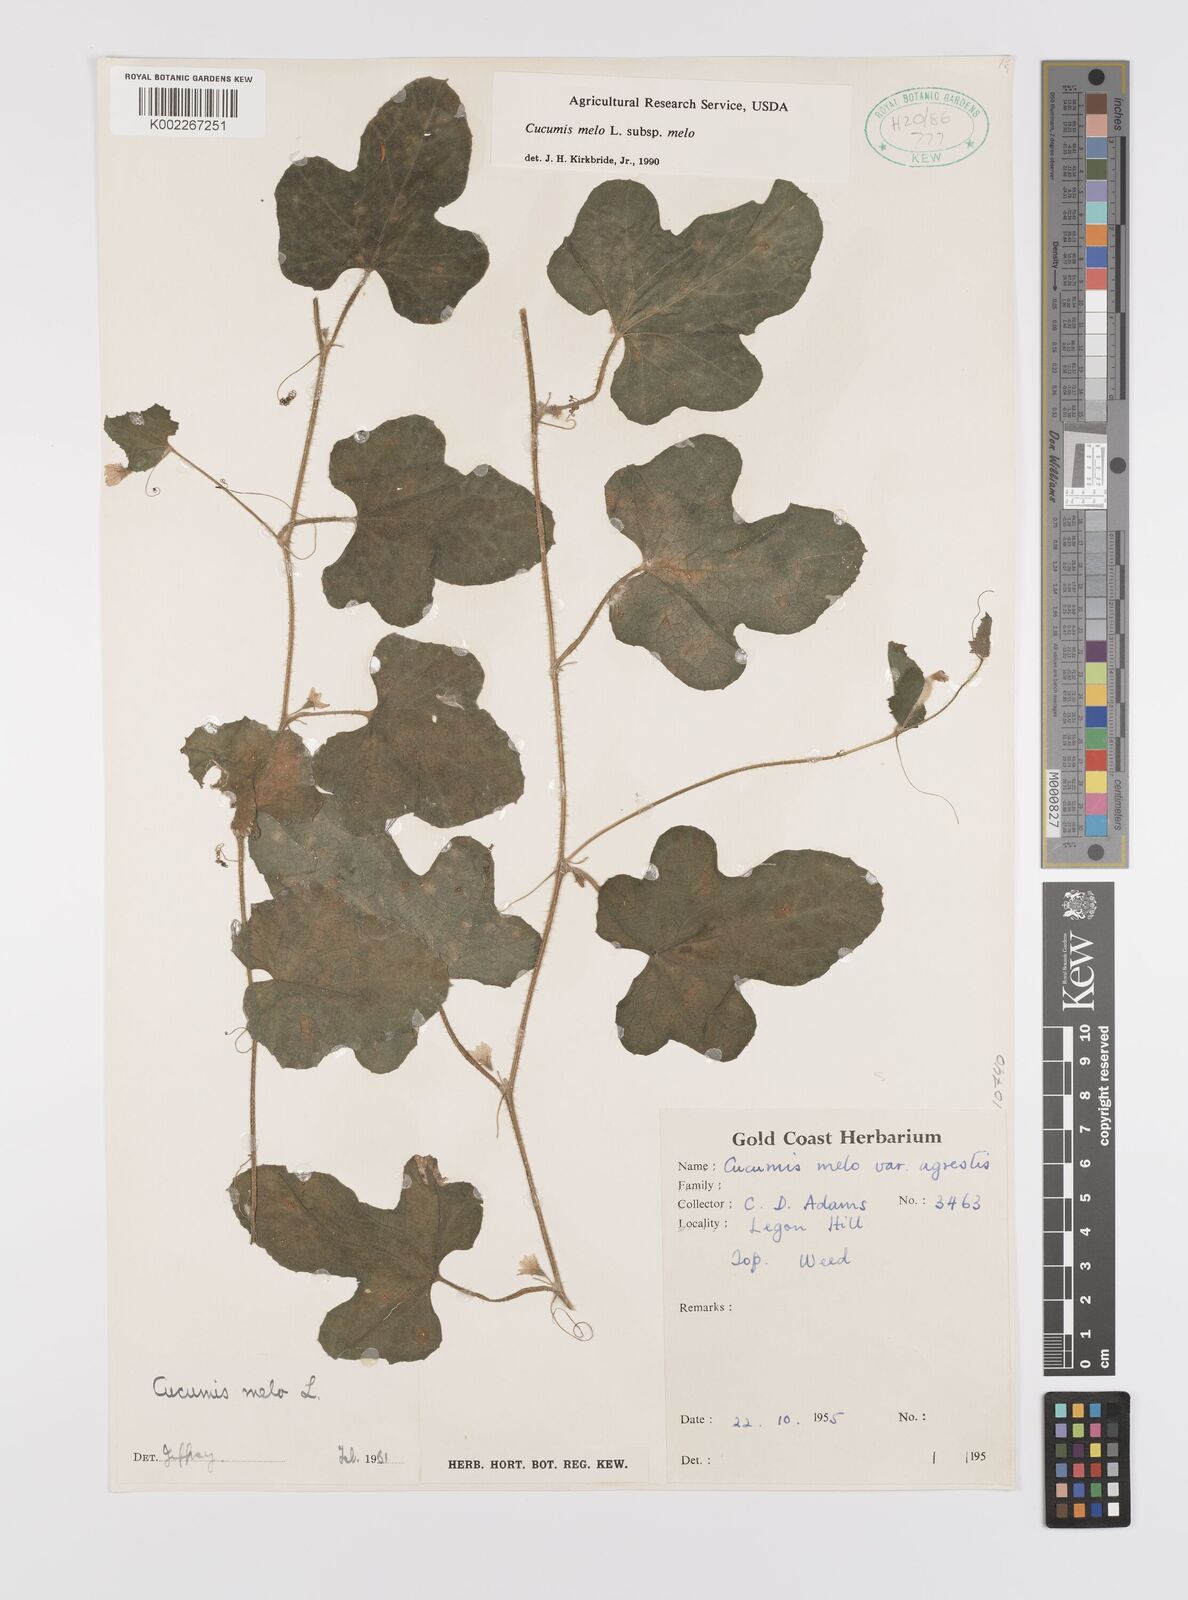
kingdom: Plantae
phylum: Tracheophyta
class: Magnoliopsida
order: Cucurbitales
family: Cucurbitaceae
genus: Cucumis
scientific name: Cucumis melo
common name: Melon
